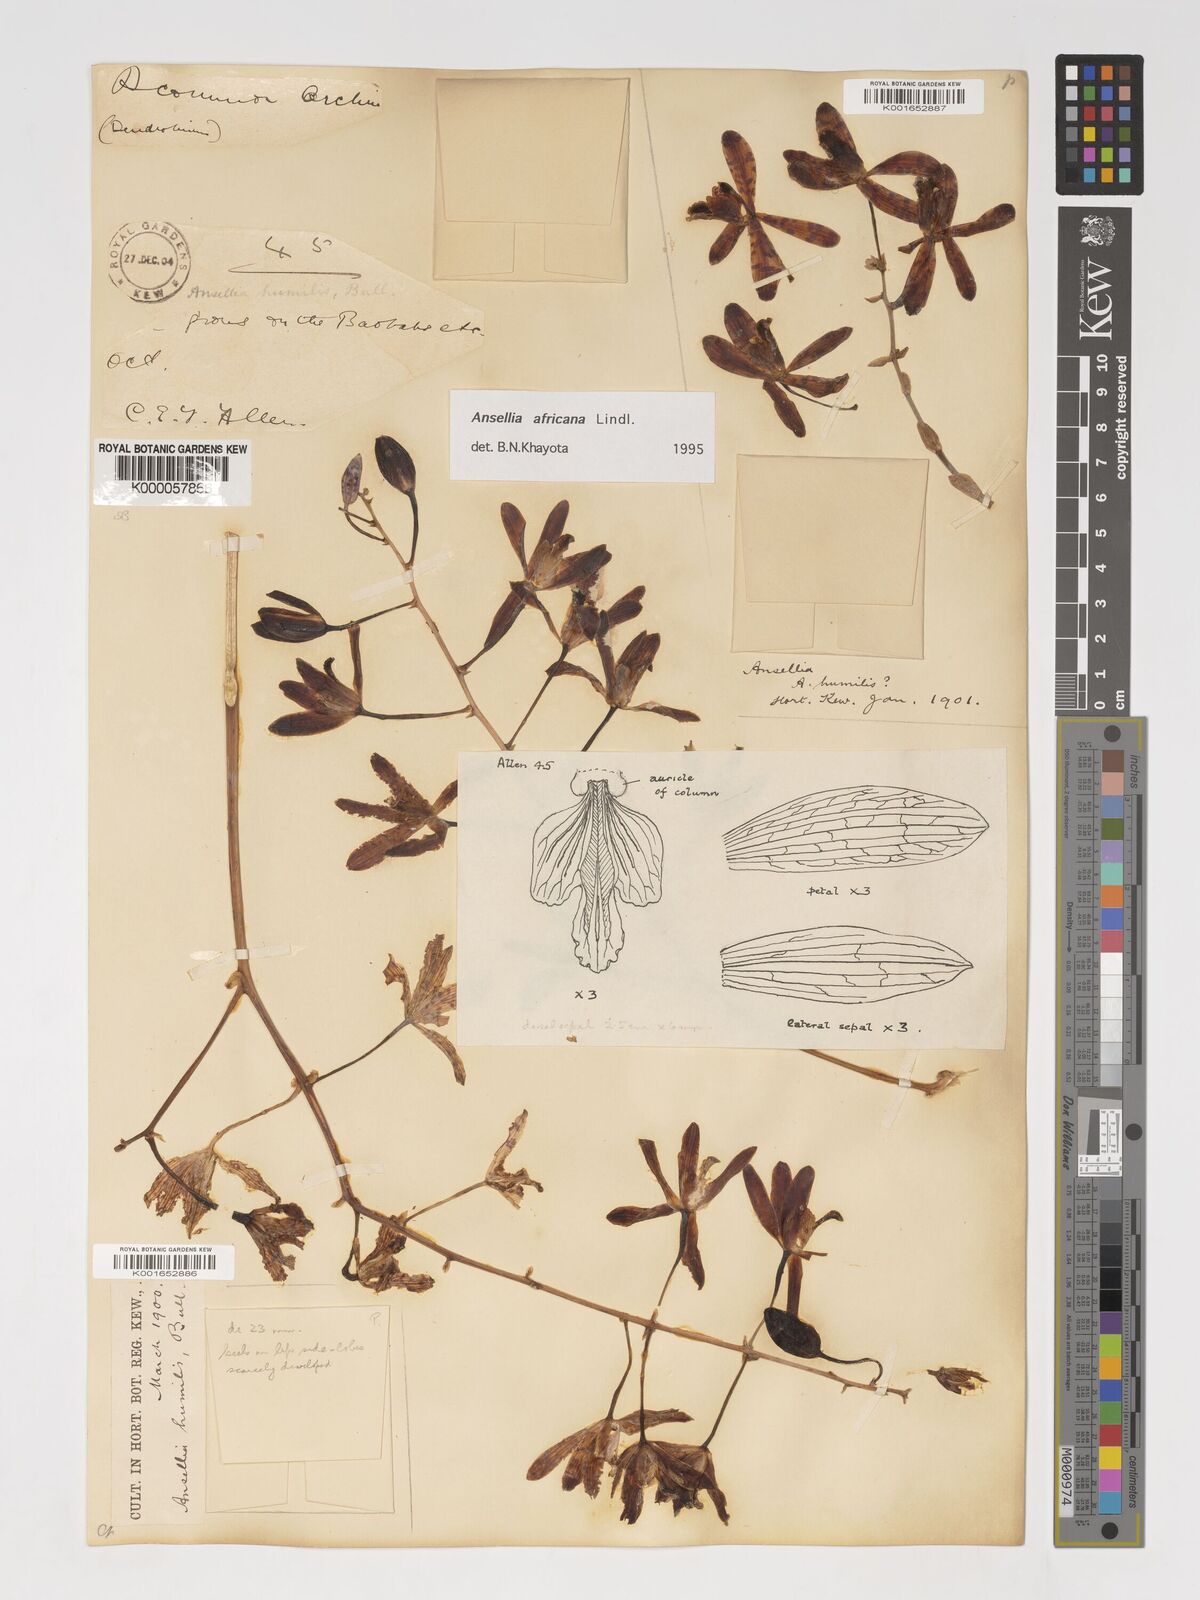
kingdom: Plantae
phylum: Tracheophyta
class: Liliopsida
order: Asparagales
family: Orchidaceae
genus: Ansellia
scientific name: Ansellia africana
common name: African ansellia
